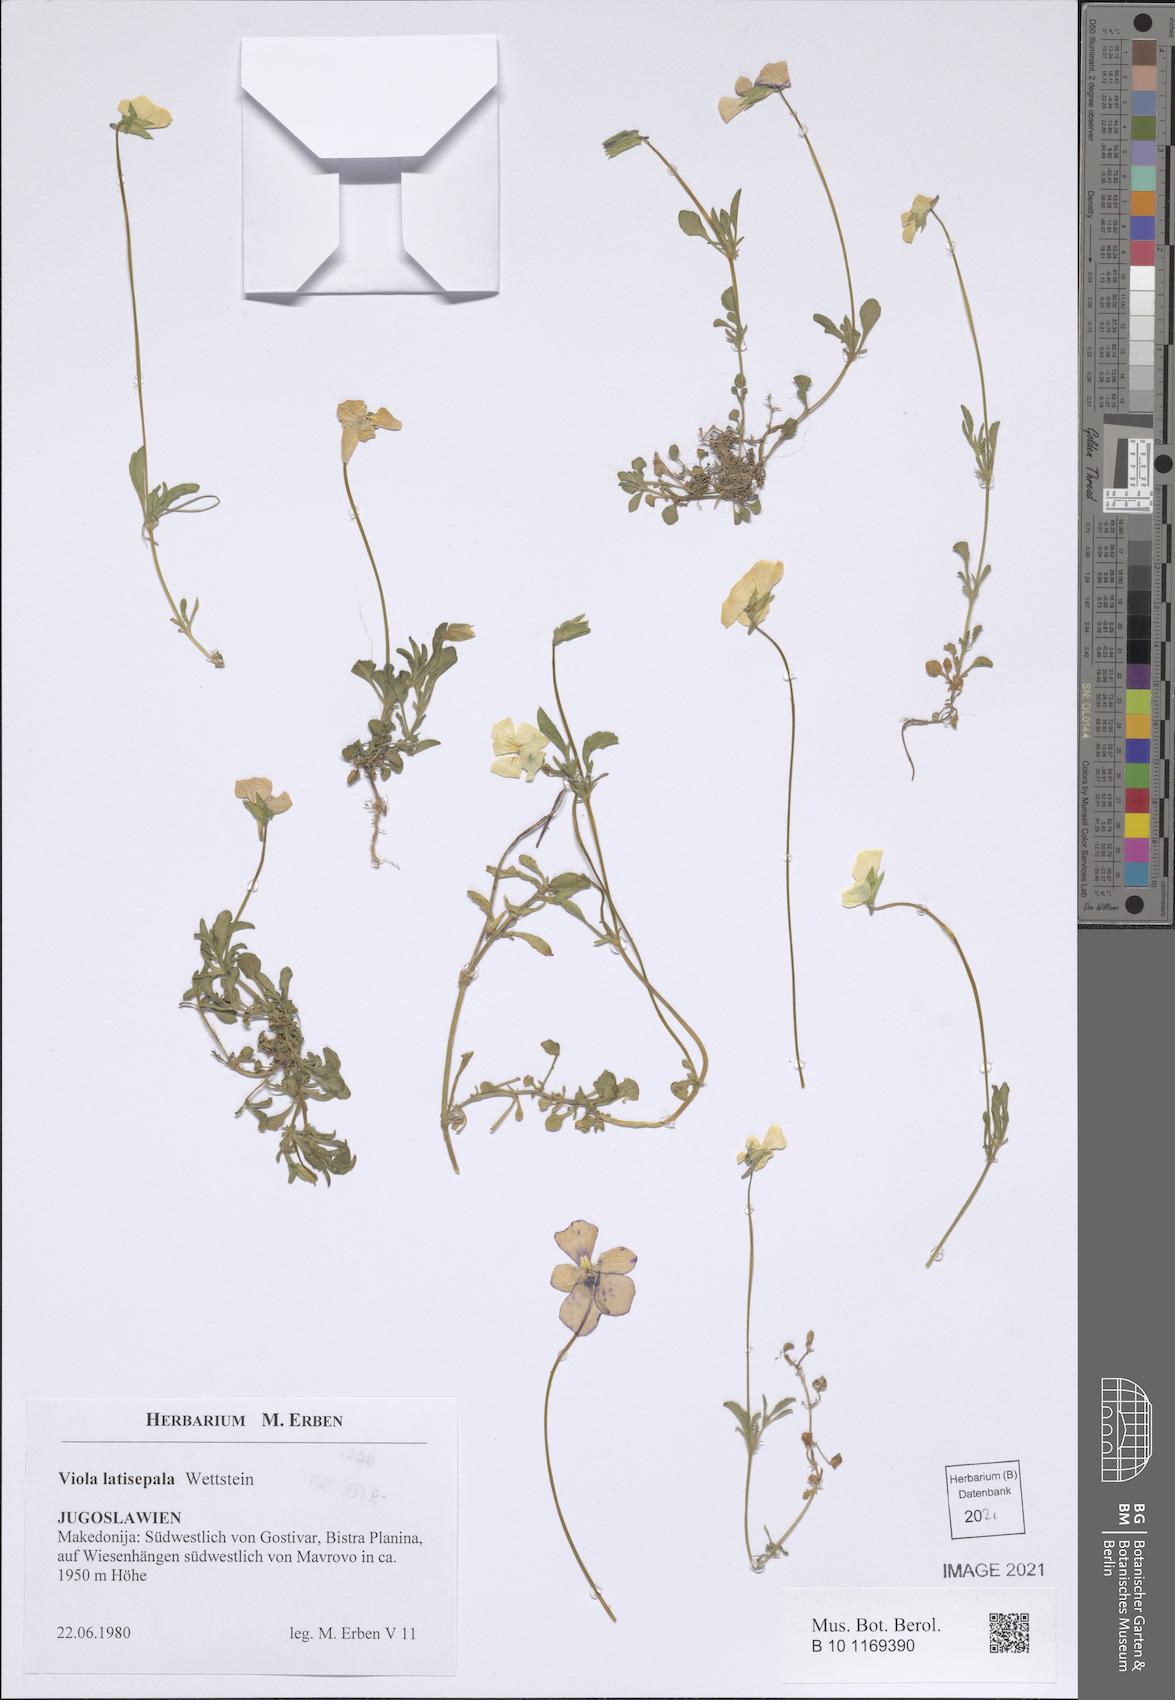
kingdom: Plantae
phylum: Tracheophyta
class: Magnoliopsida
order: Malpighiales
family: Violaceae
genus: Viola
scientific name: Viola tricolor
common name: Pansy
